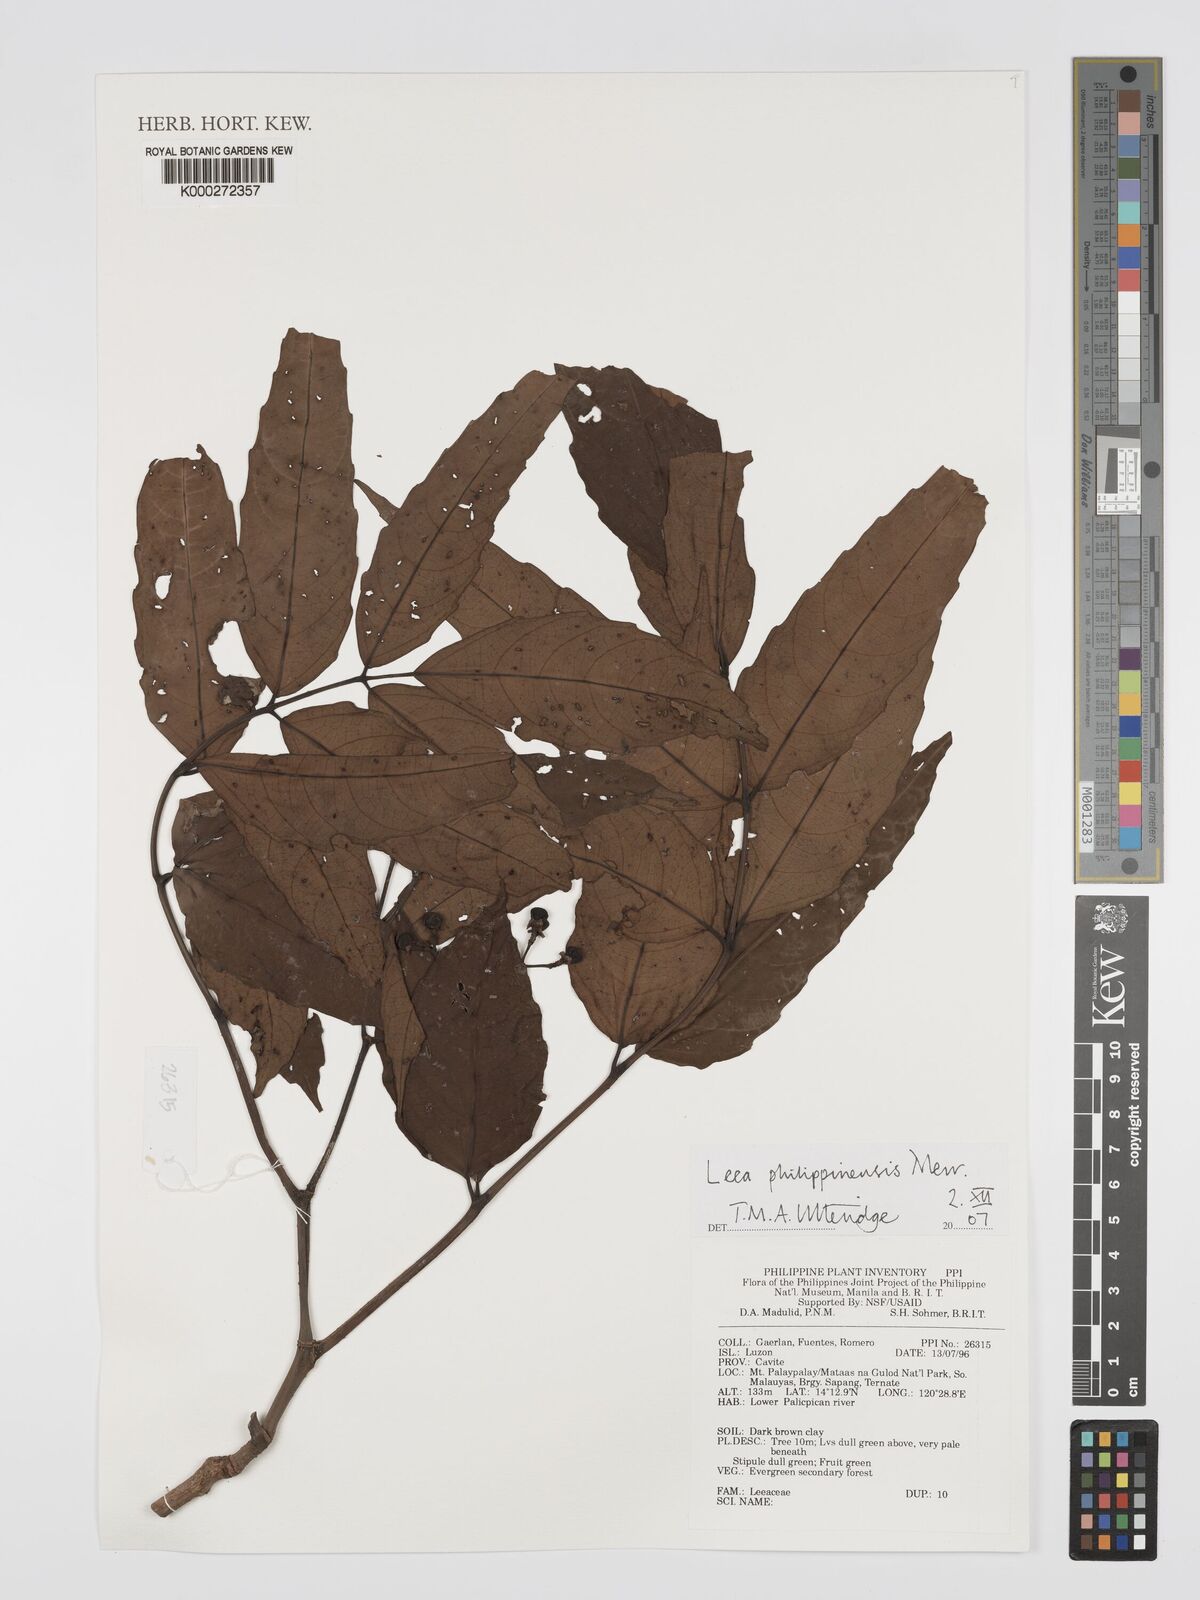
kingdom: Plantae
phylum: Tracheophyta
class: Magnoliopsida
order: Vitales
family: Vitaceae
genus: Leea
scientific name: Leea philippinensis
